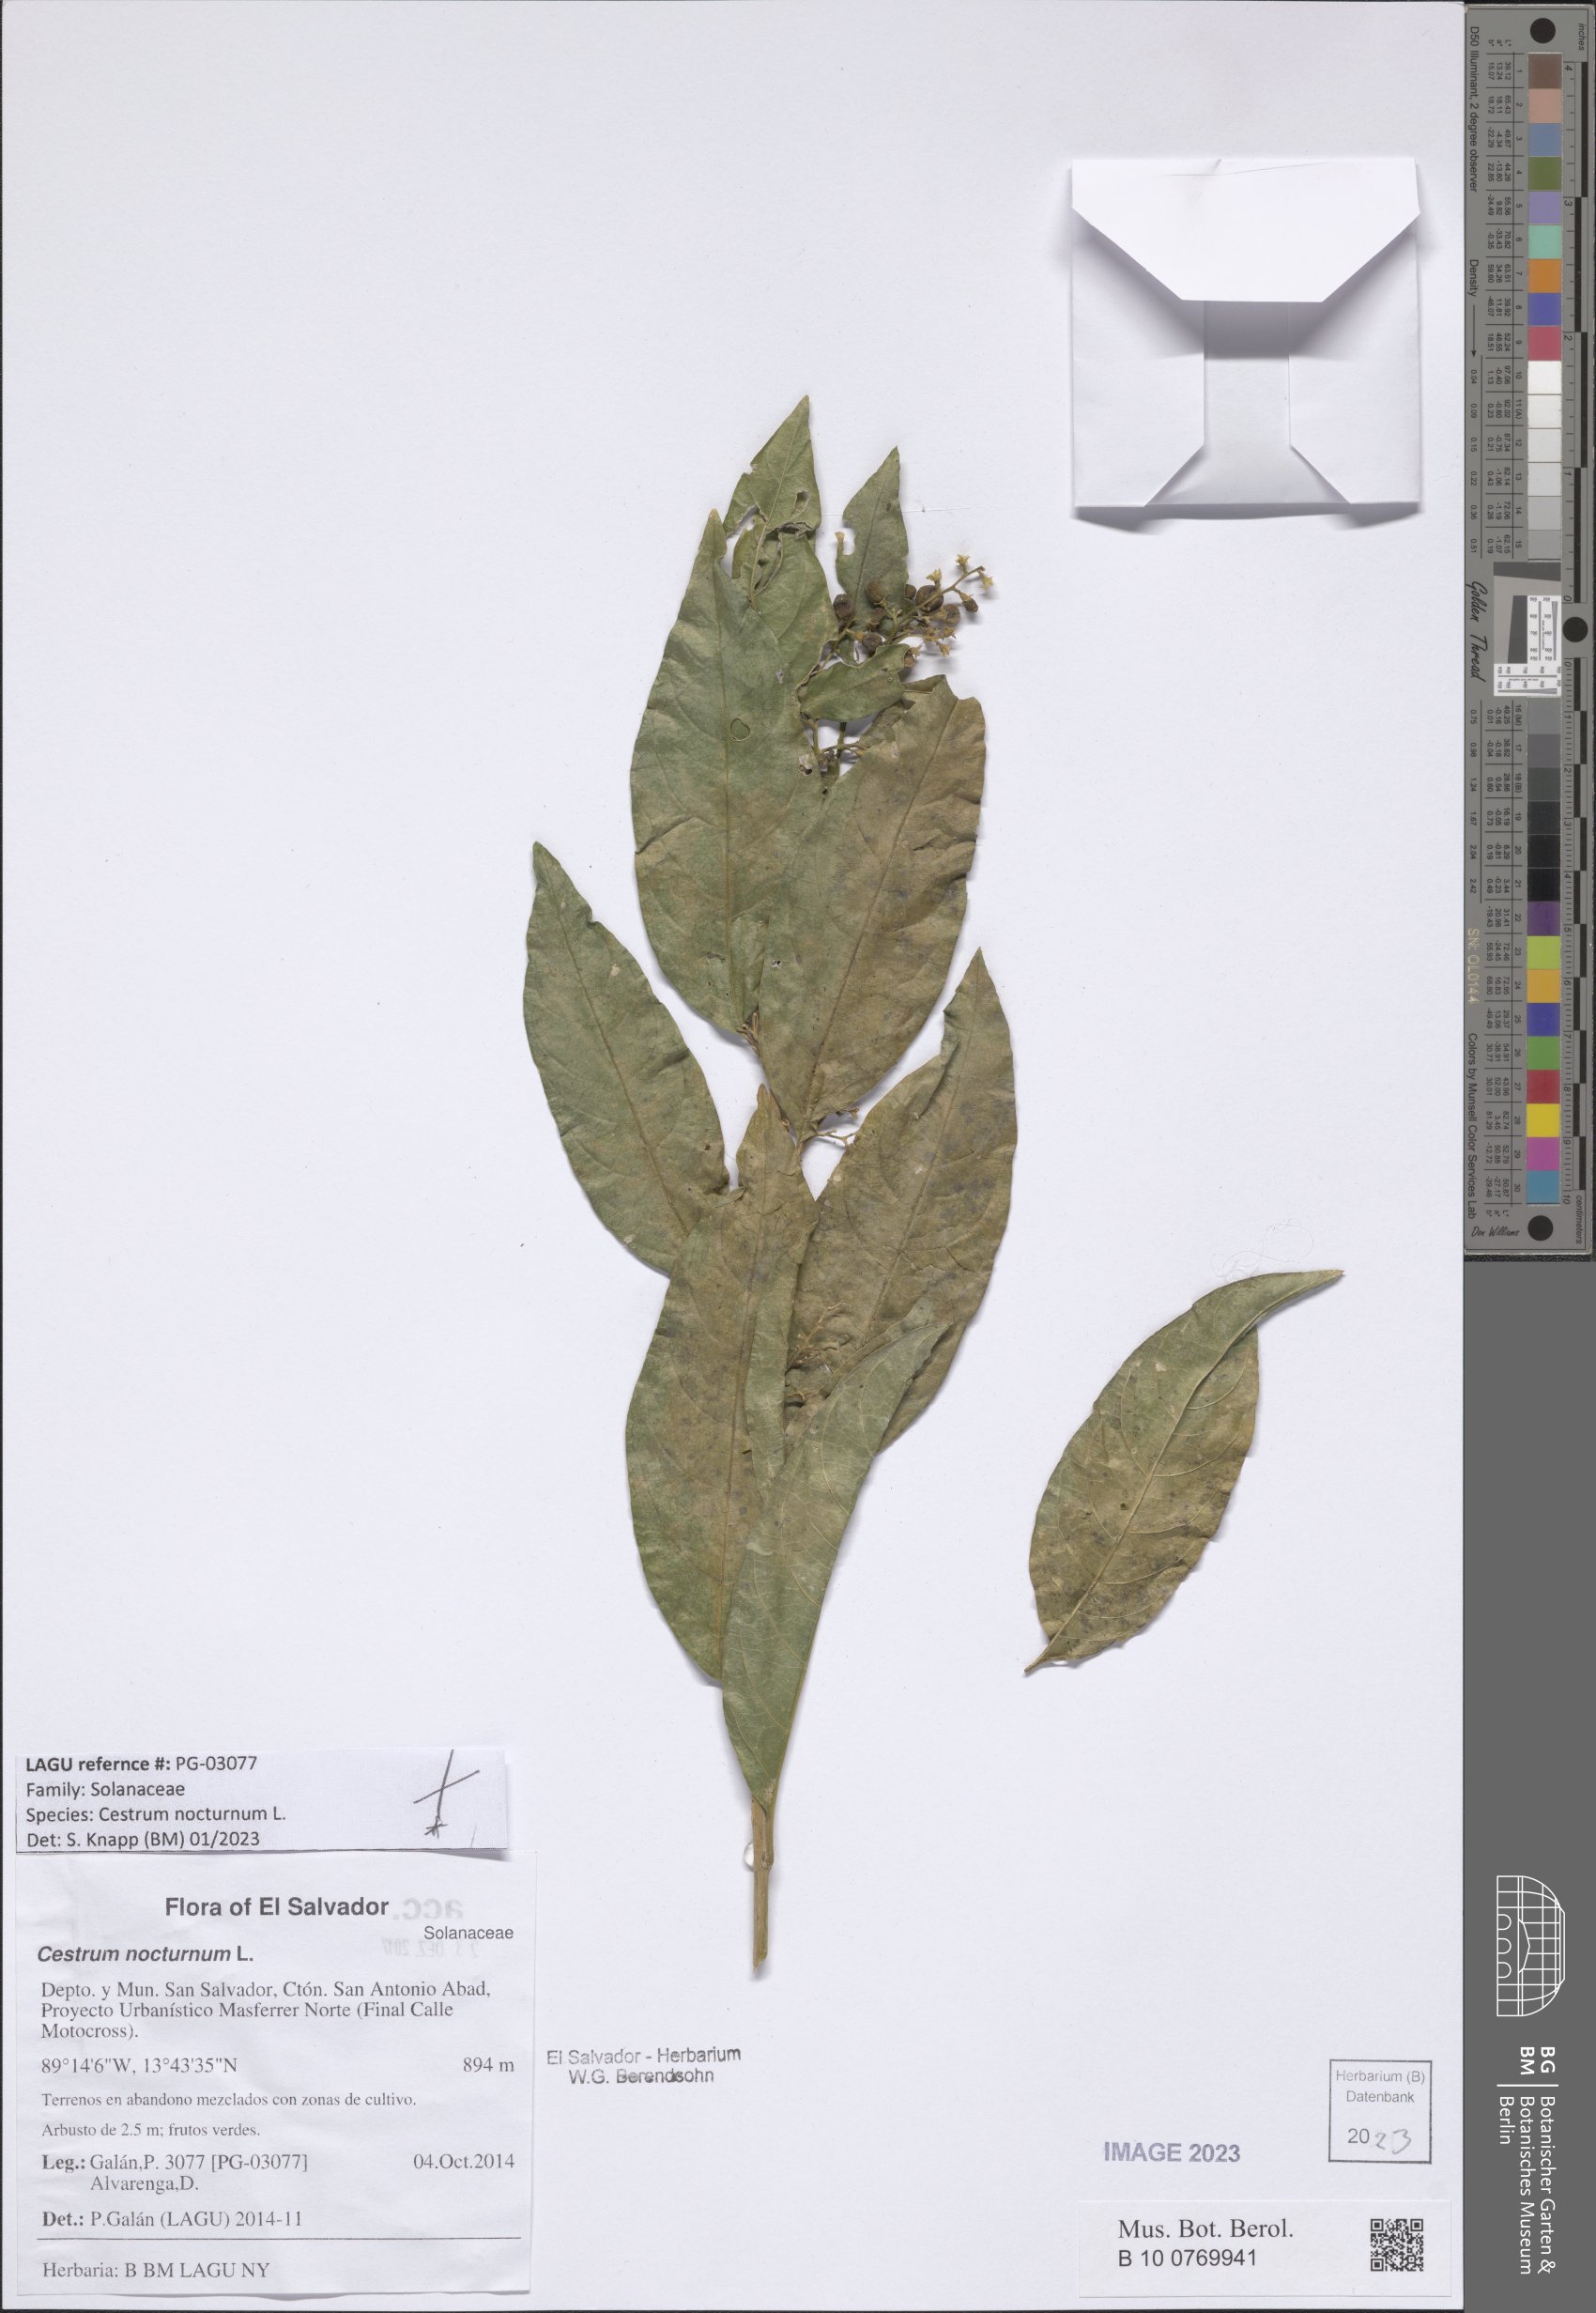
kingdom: Plantae
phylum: Tracheophyta
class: Magnoliopsida
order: Solanales
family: Solanaceae
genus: Cestrum
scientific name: Cestrum nocturnum
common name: Night jessamine
